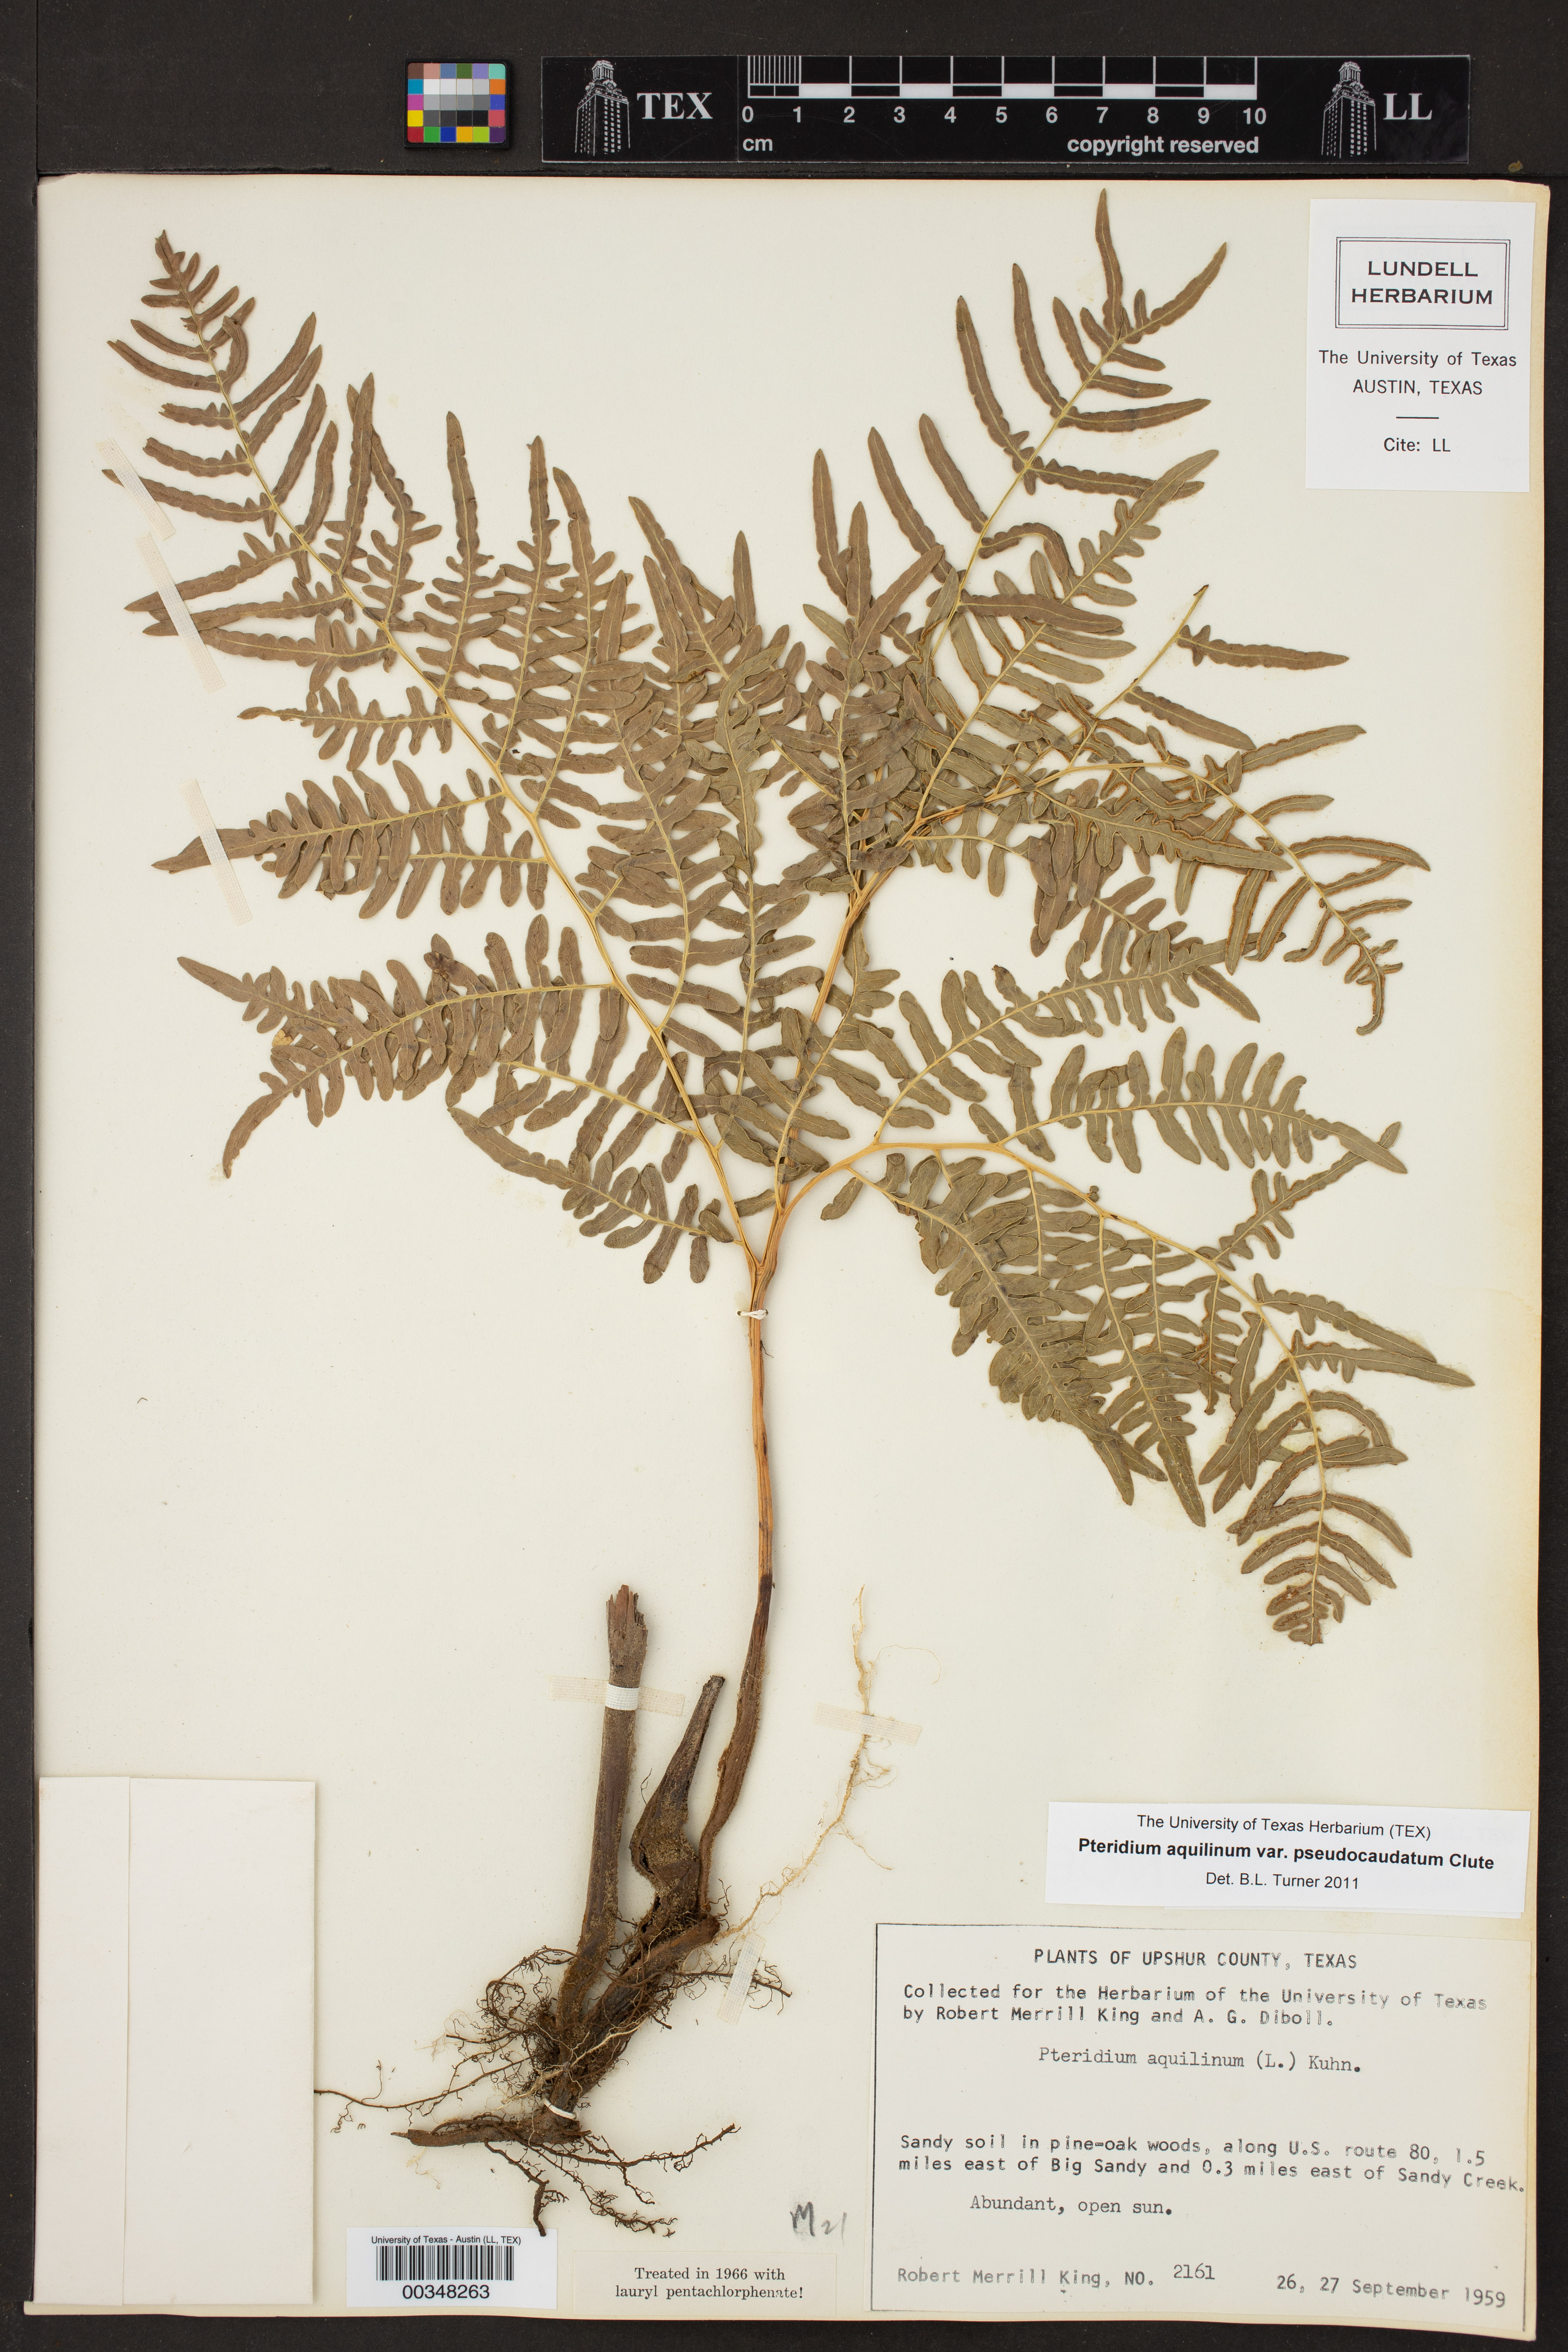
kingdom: Plantae
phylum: Tracheophyta
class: Polypodiopsida
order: Polypodiales
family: Dennstaedtiaceae
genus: Pteridium
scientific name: Pteridium
